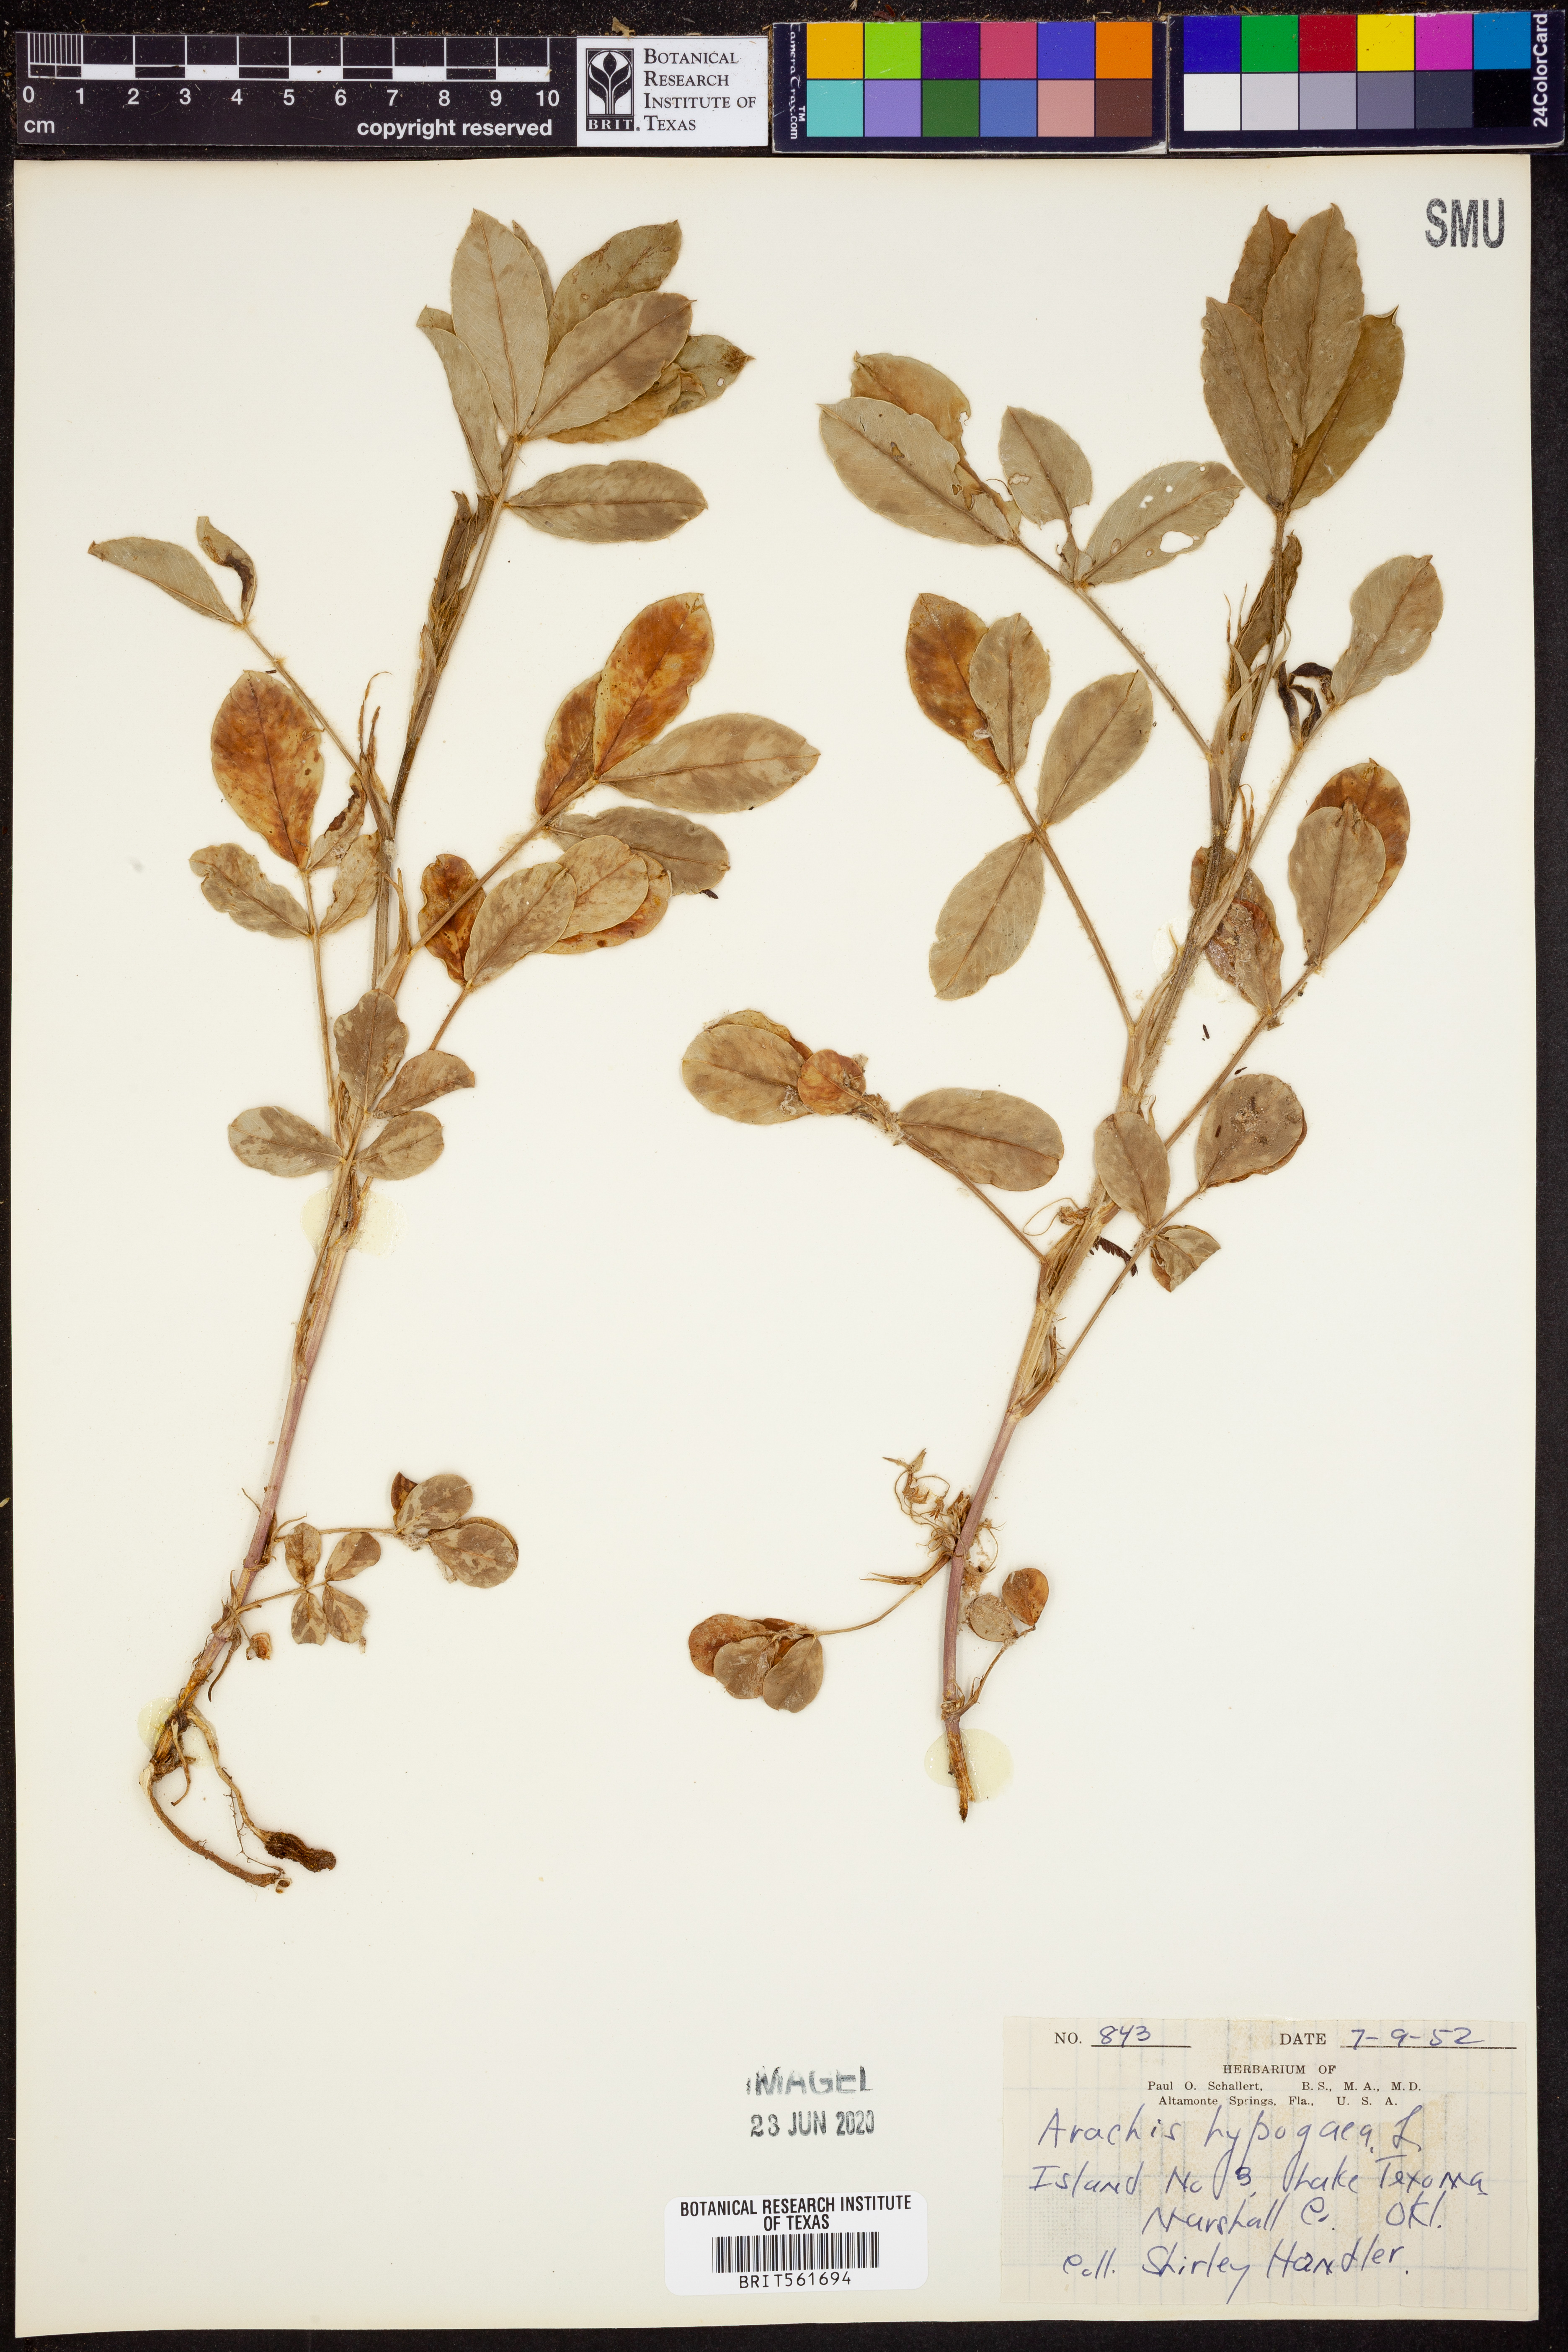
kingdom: Plantae
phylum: Tracheophyta
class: Magnoliopsida
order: Fabales
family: Fabaceae
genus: Arachis
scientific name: Arachis hypogaea
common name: Peanut
